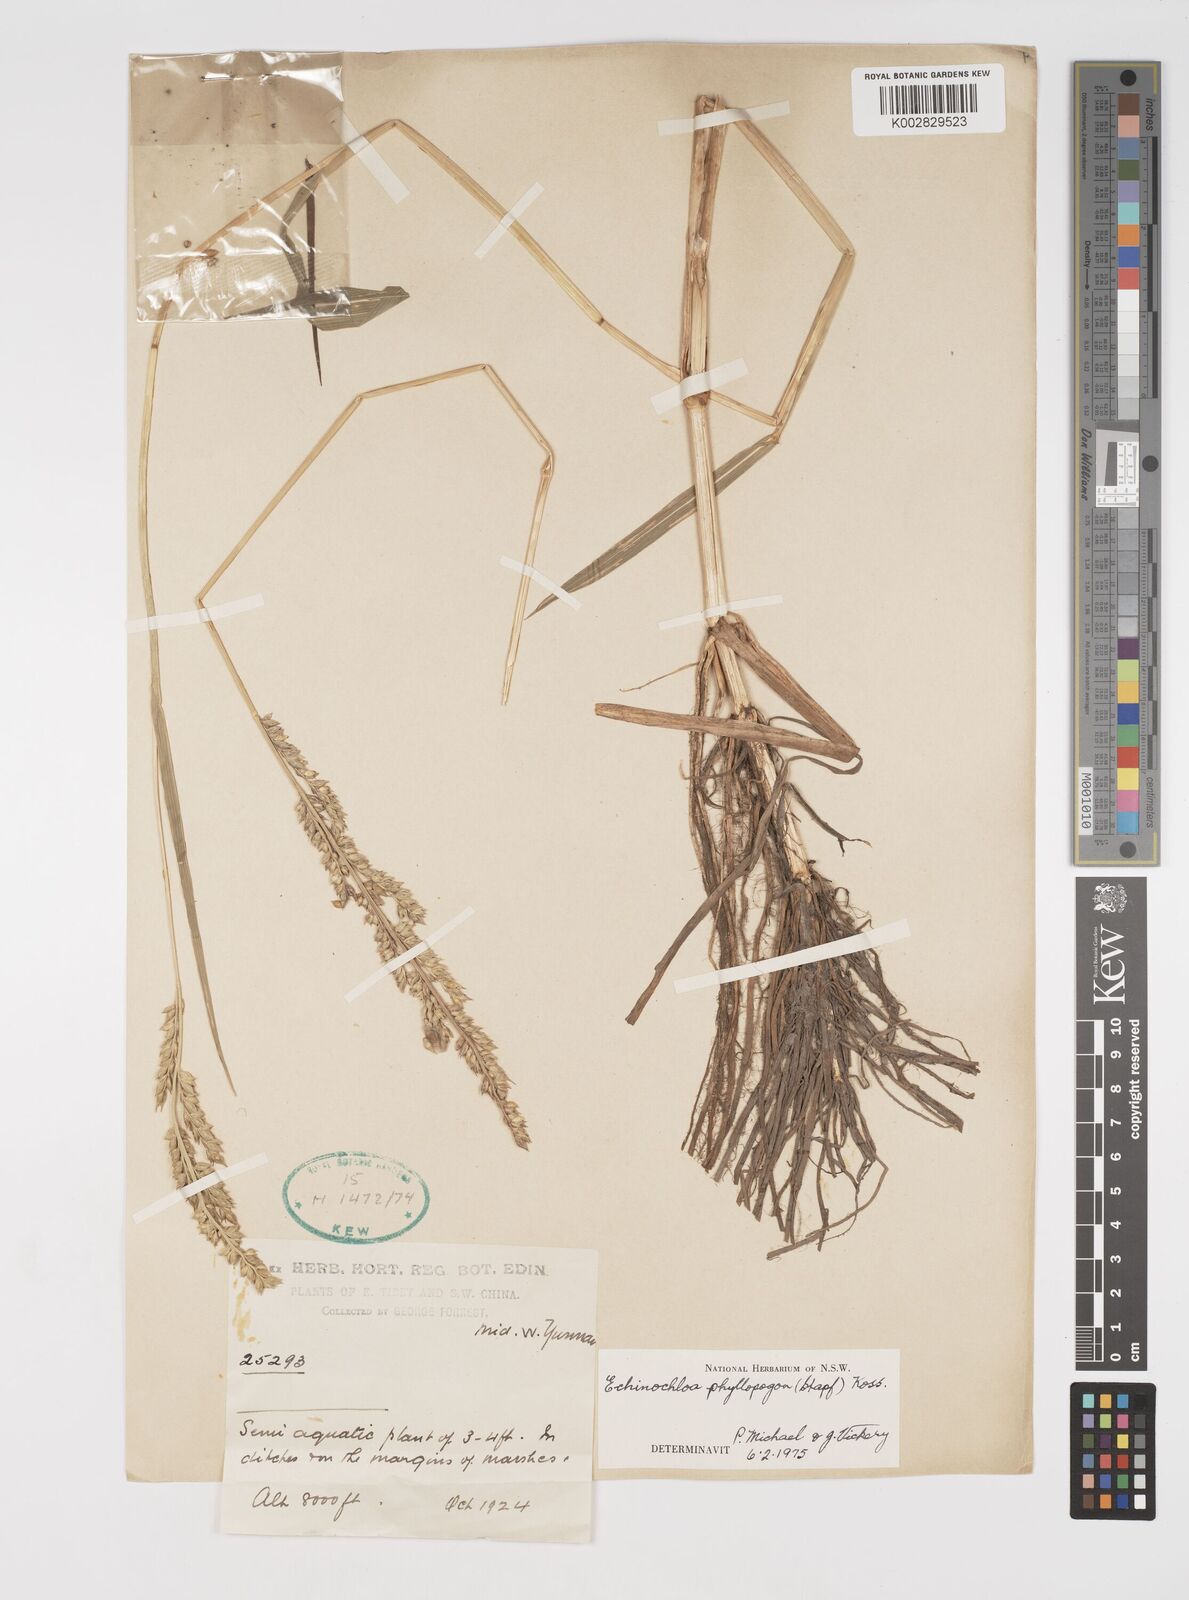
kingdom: Plantae
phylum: Tracheophyta
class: Liliopsida
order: Poales
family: Poaceae
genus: Echinochloa
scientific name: Echinochloa oryzoides
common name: Early water grass
